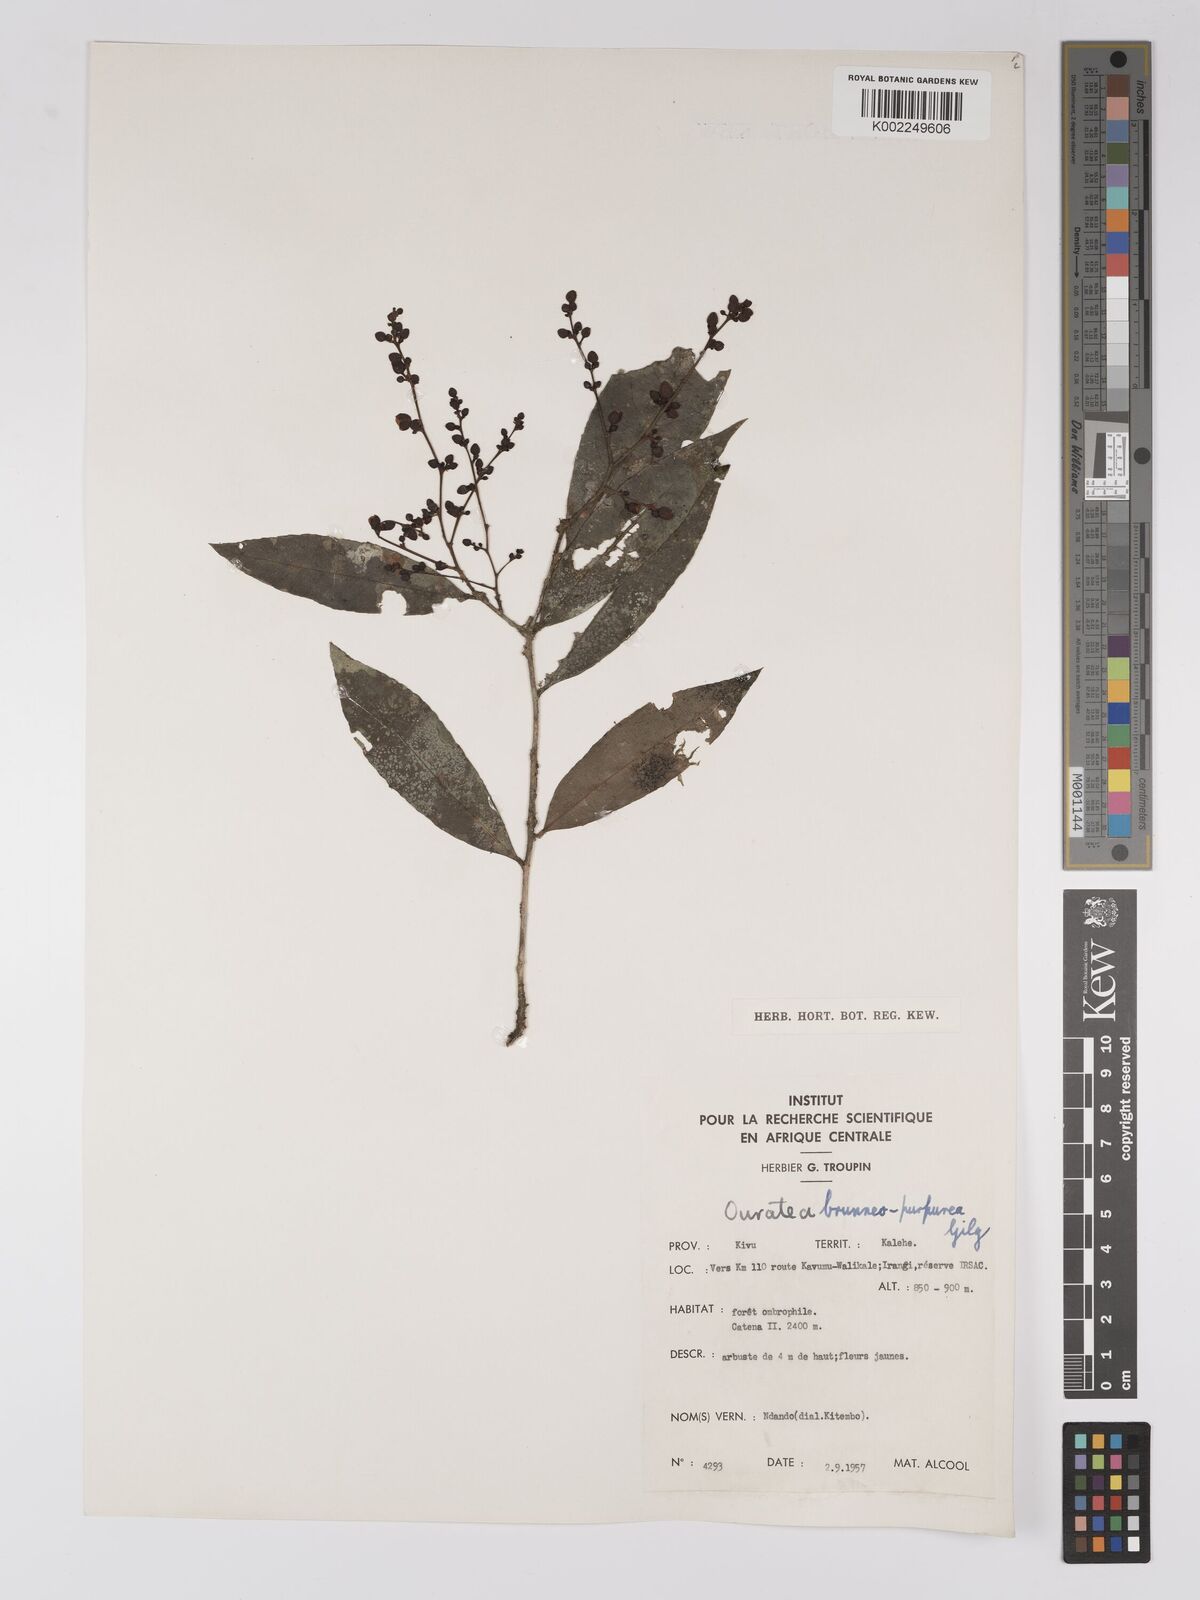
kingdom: Plantae
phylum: Tracheophyta
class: Magnoliopsida
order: Malpighiales
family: Ochnaceae
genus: Campylospermum
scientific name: Campylospermum reticulatum
